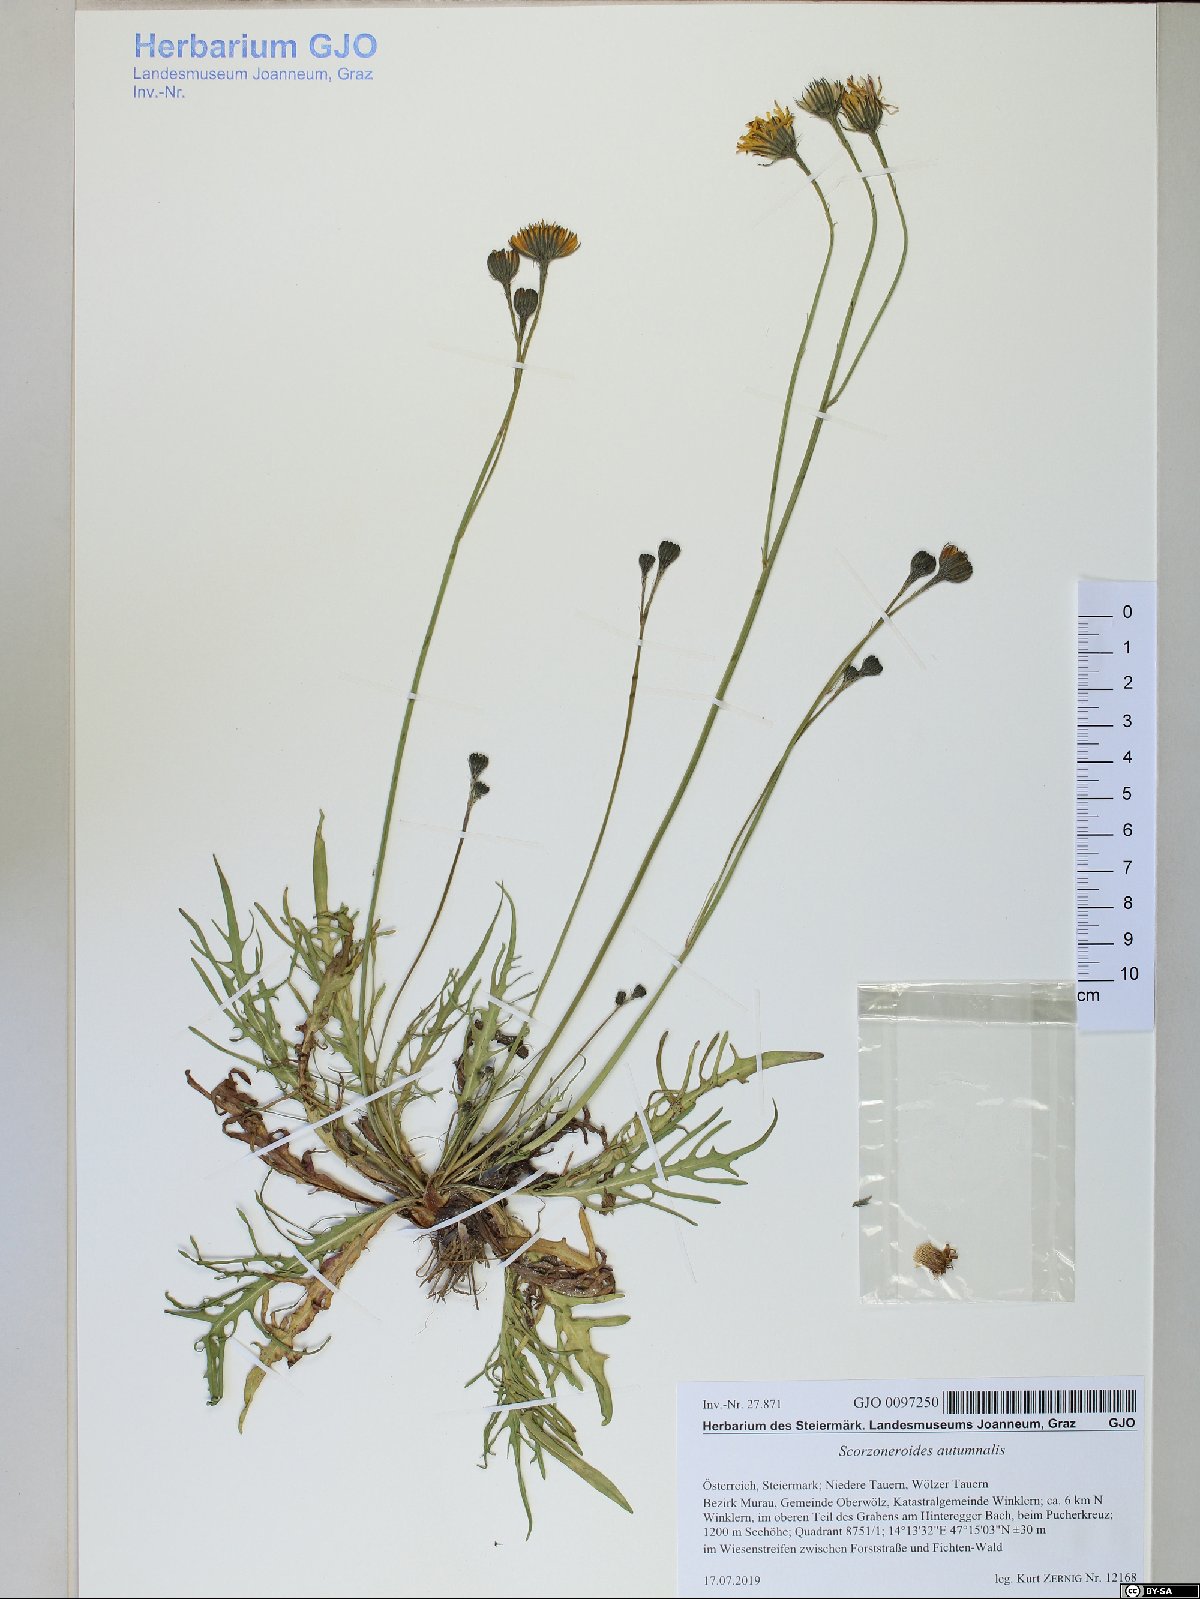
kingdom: Plantae
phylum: Tracheophyta
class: Magnoliopsida
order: Asterales
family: Asteraceae
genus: Scorzoneroides
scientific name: Scorzoneroides autumnalis
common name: Autumn hawkbit
